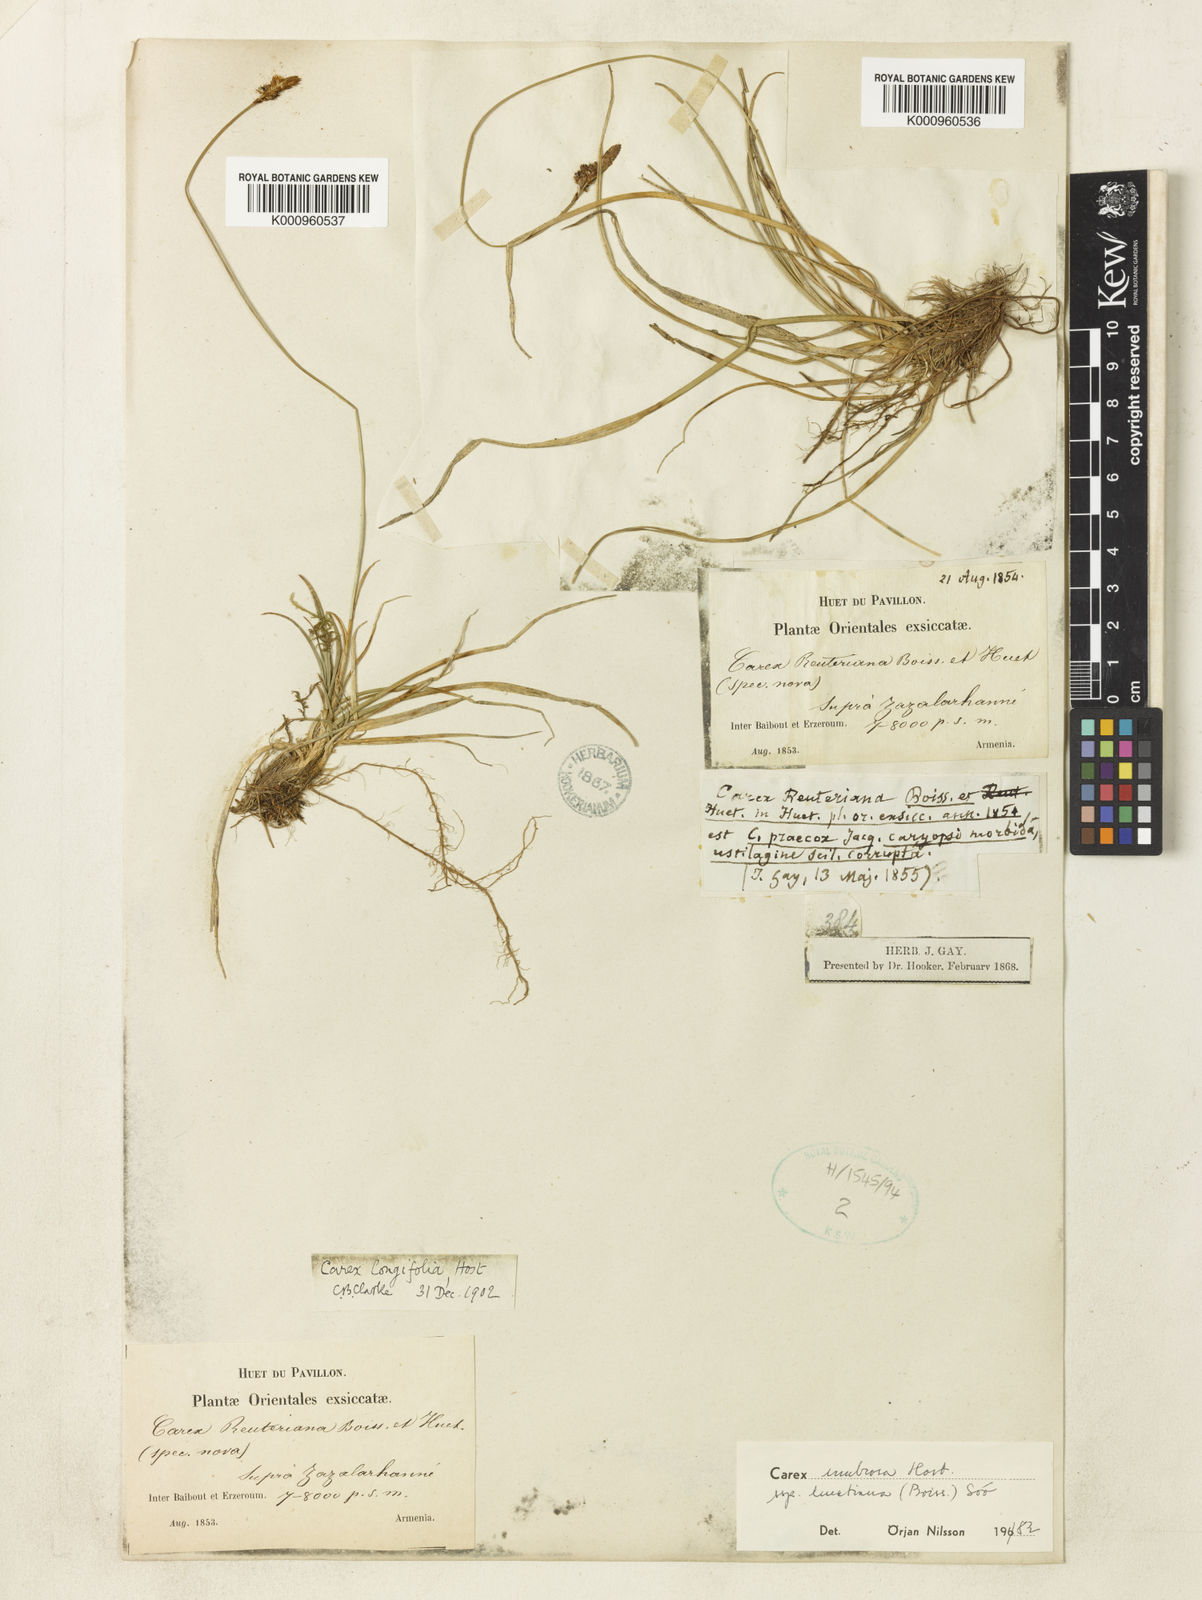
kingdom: Plantae
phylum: Tracheophyta
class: Liliopsida
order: Poales
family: Cyperaceae
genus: Carex
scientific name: Carex umbrosa
